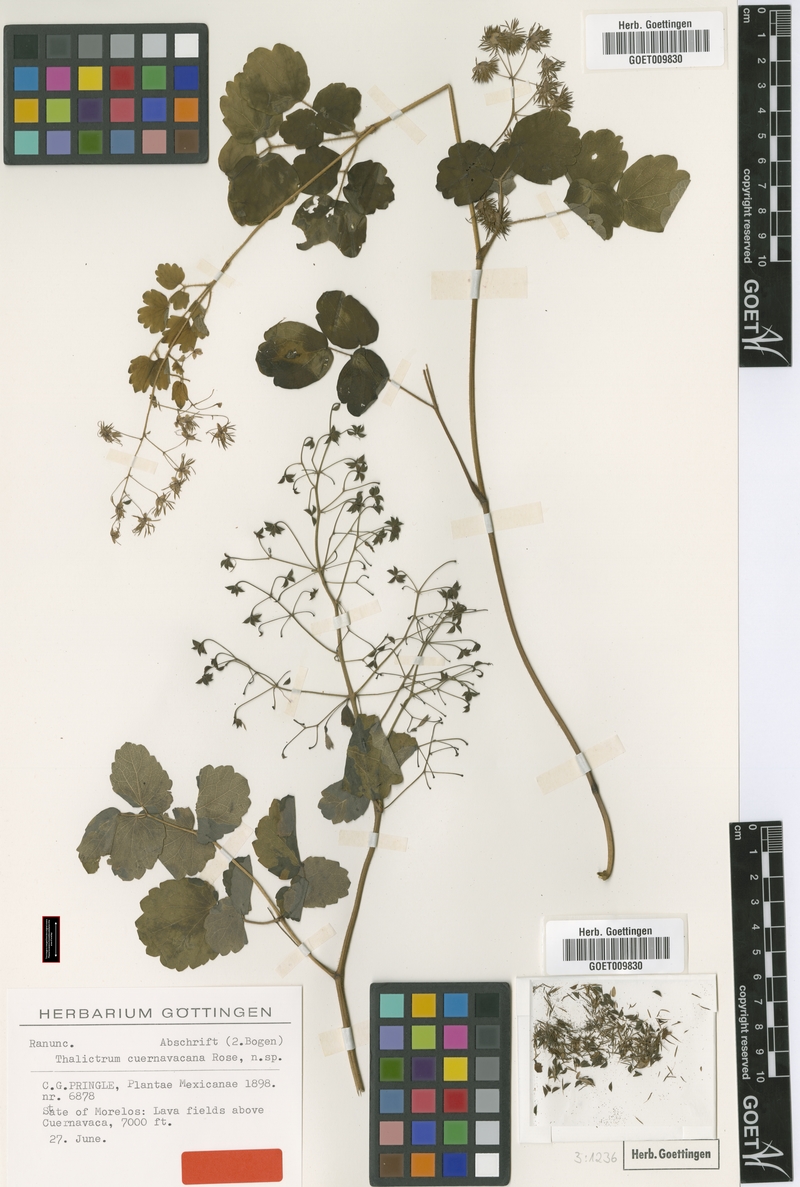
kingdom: Plantae
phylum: Tracheophyta
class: Magnoliopsida
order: Ranunculales
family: Ranunculaceae
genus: Thalictrum
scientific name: Thalictrum cuernavacanum
